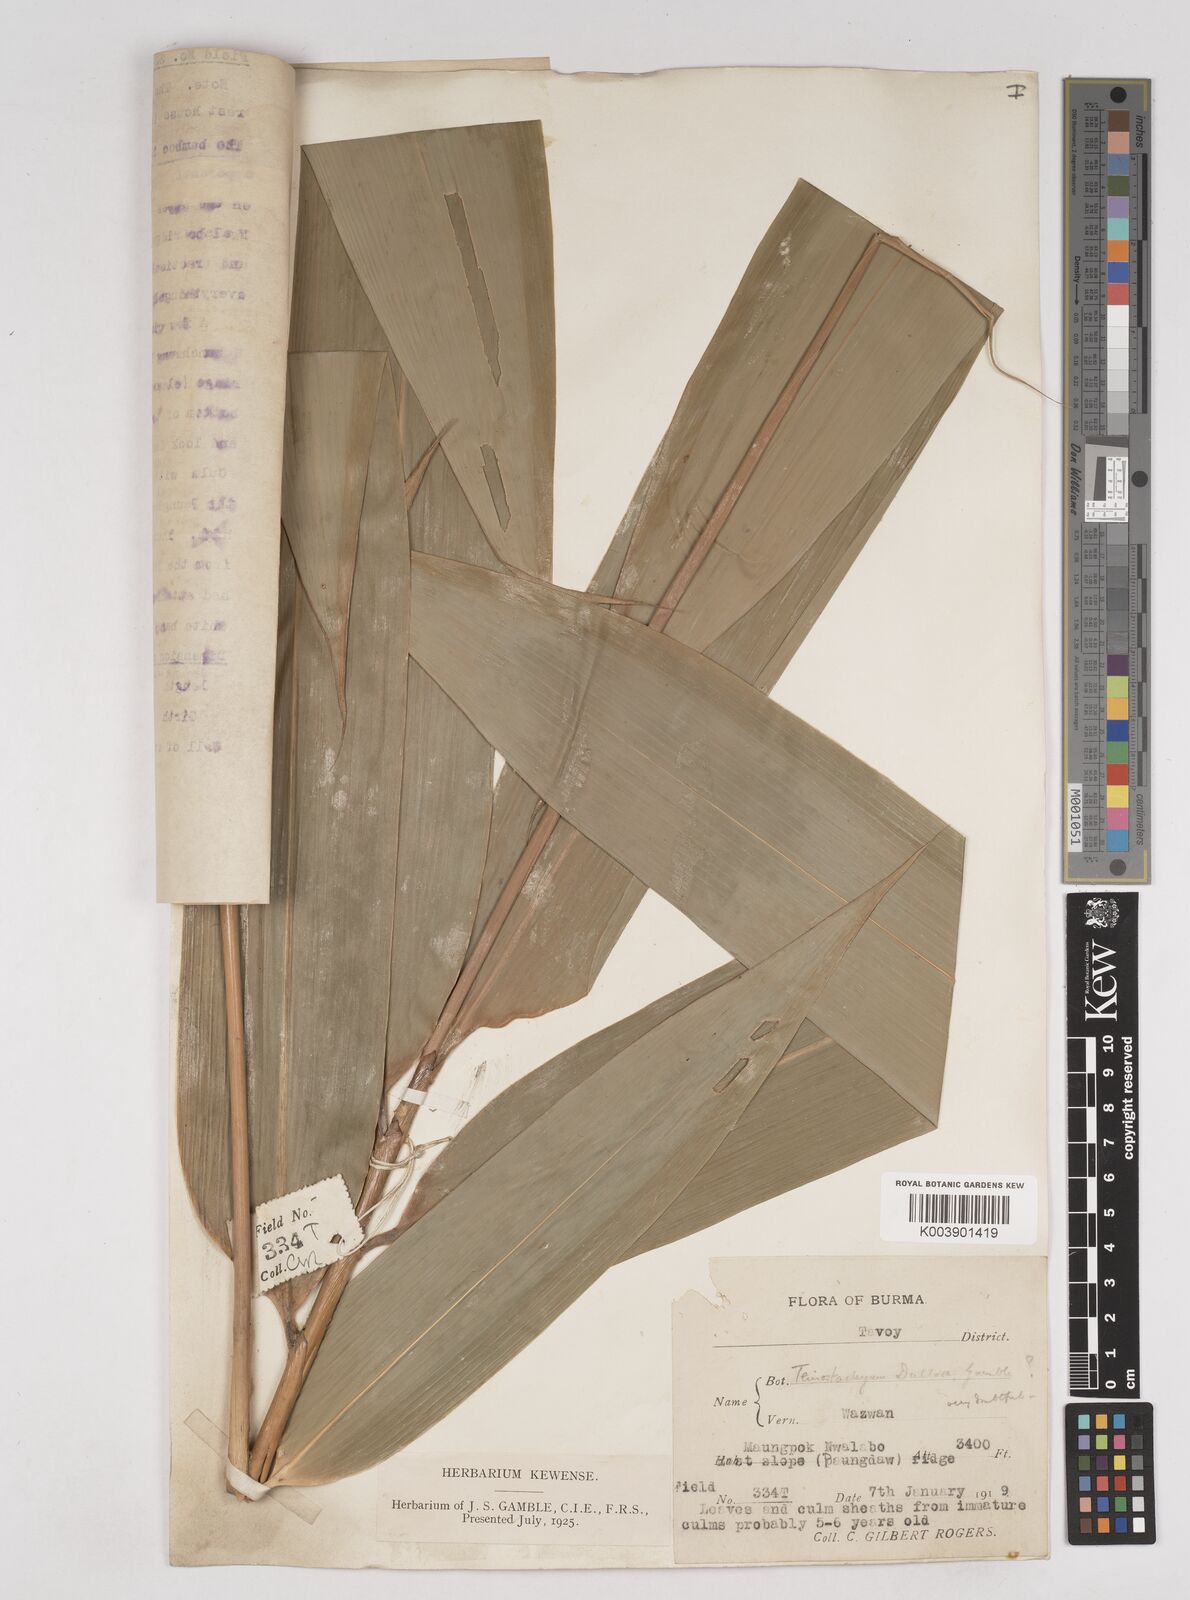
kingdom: Plantae
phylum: Tracheophyta
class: Liliopsida
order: Poales
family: Poaceae
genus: Schizostachyum
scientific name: Schizostachyum tavoyanum
